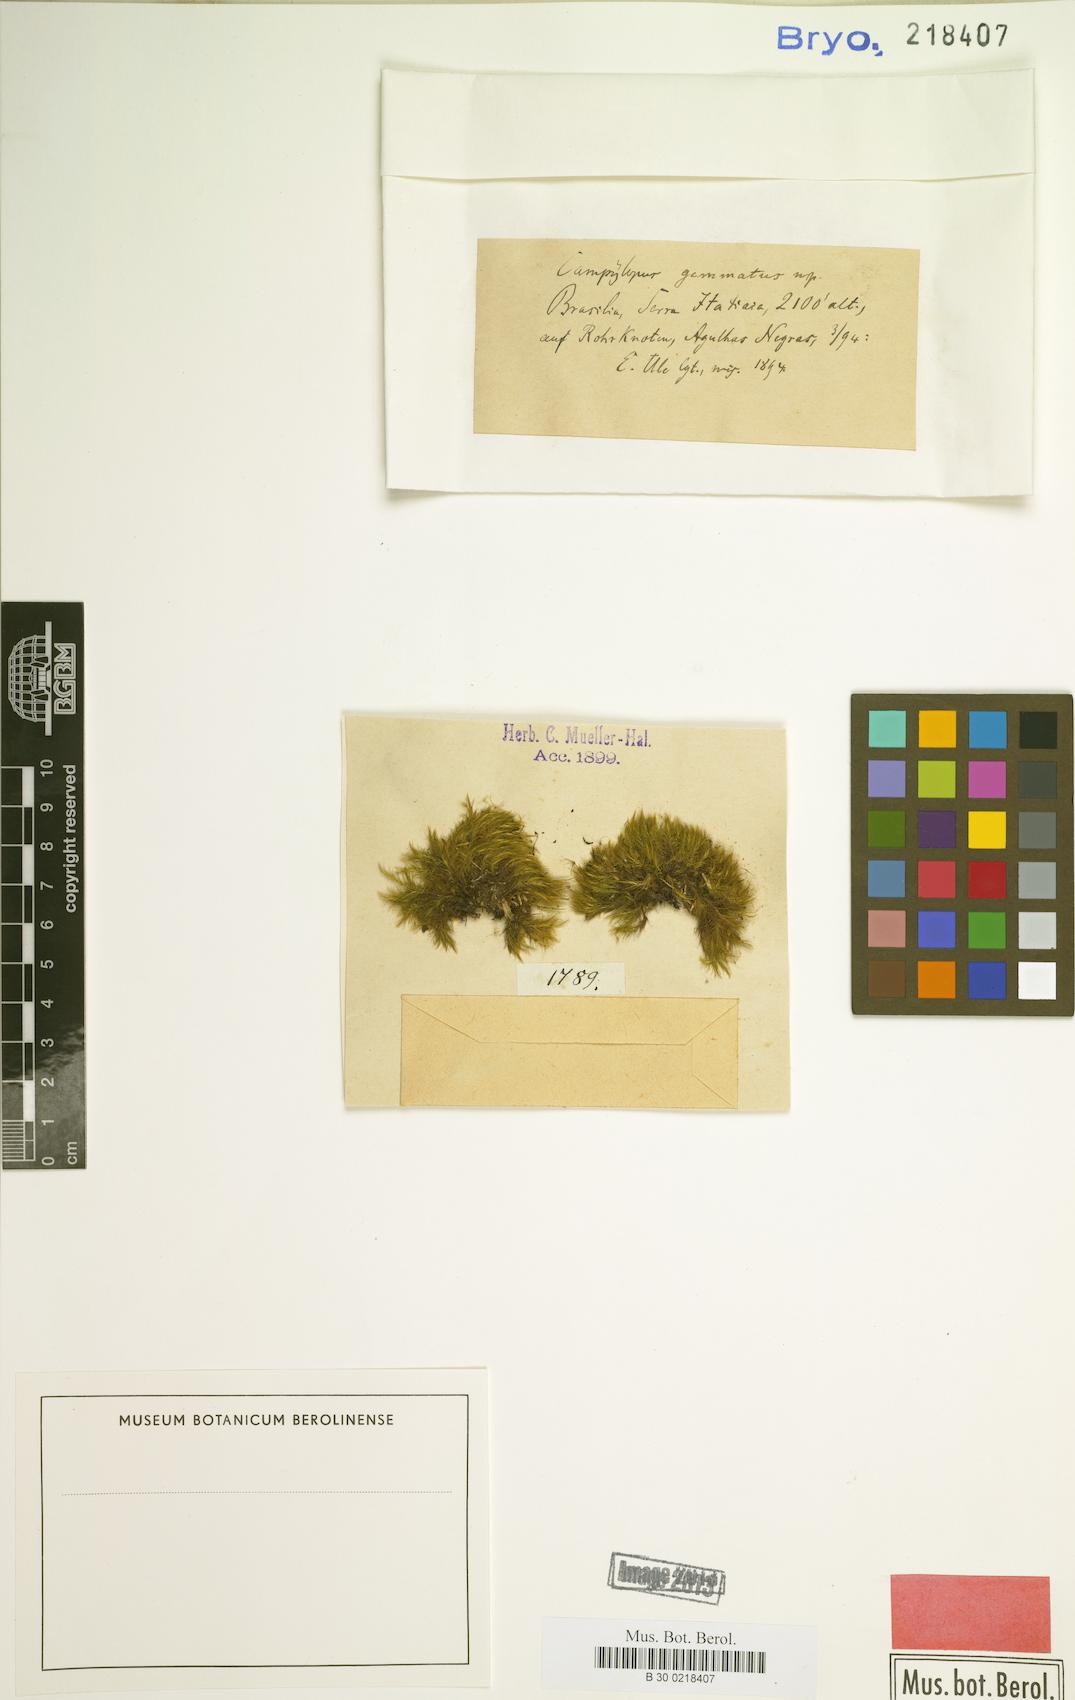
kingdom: Plantae
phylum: Bryophyta
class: Bryopsida
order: Dicranales
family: Leucobryaceae
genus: Campylopus
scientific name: Campylopus gemmatus
